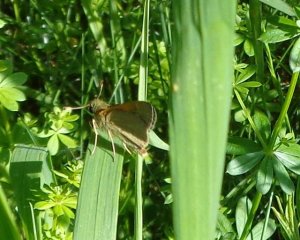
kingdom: Animalia
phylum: Arthropoda
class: Insecta
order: Lepidoptera
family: Hesperiidae
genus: Polites
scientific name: Polites themistocles
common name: Tawny-edged Skipper
